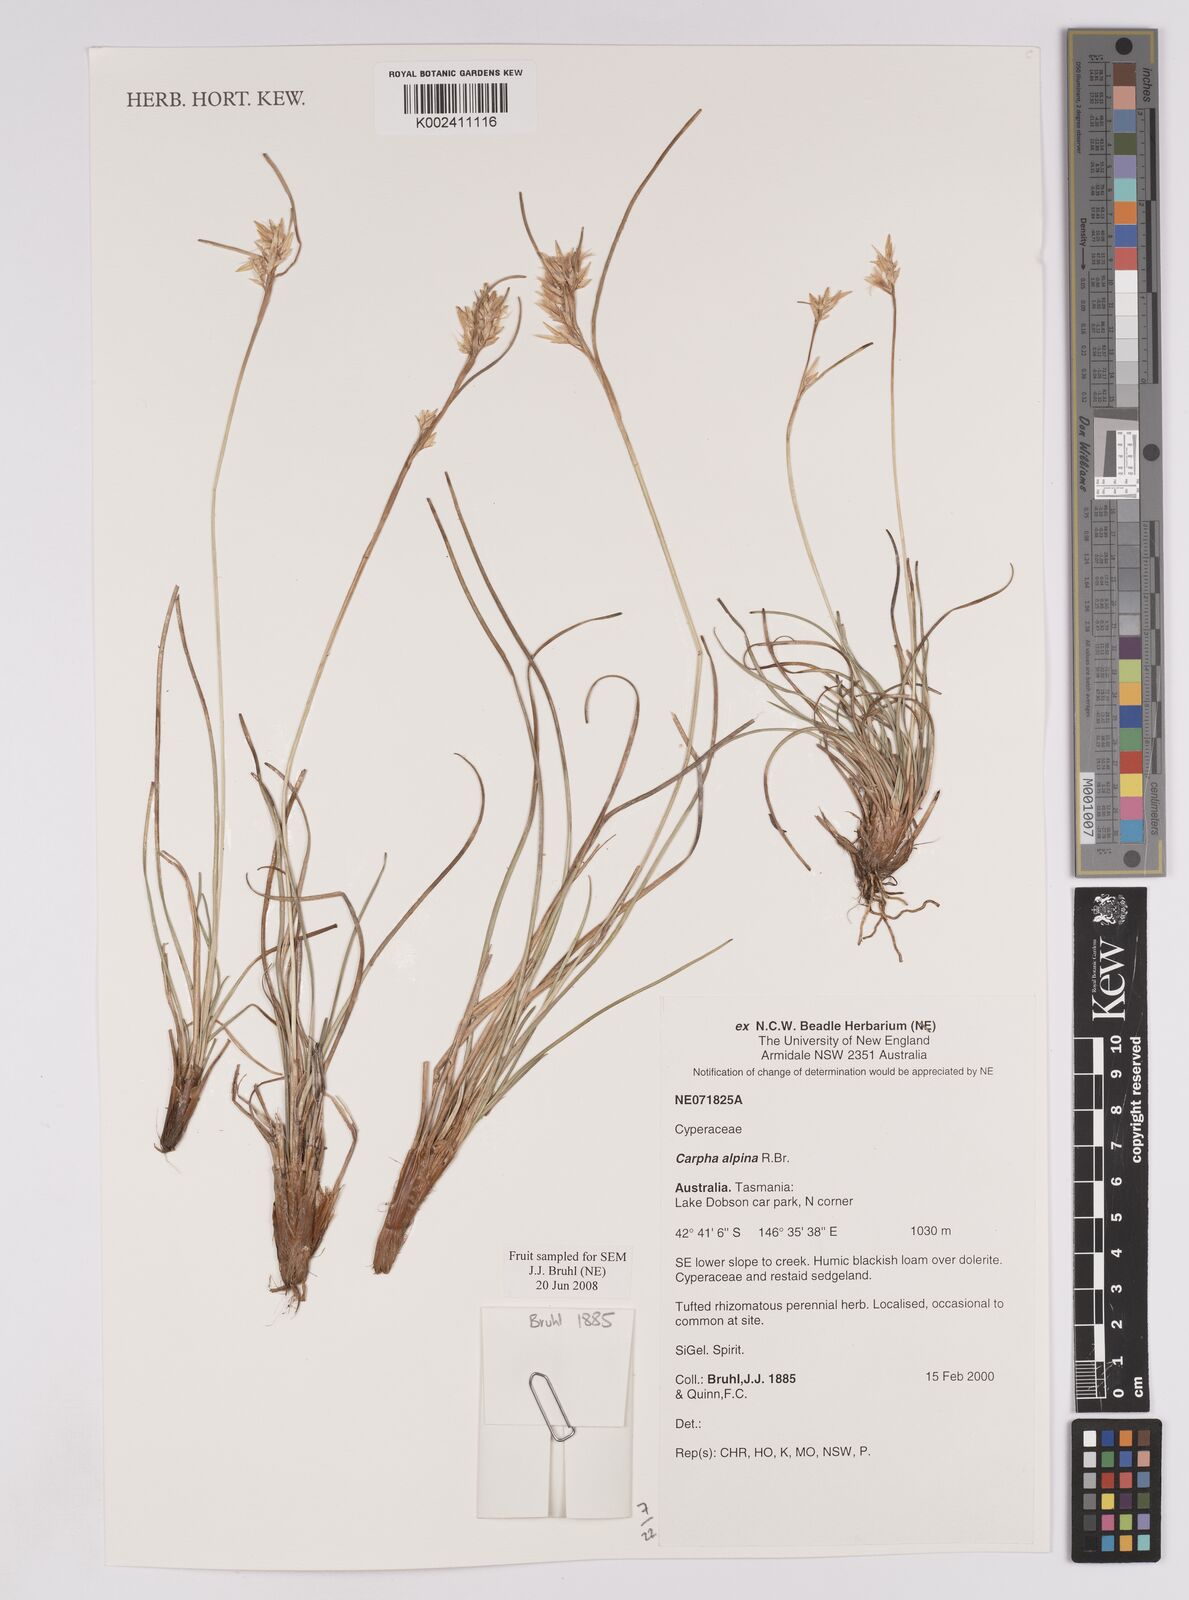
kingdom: Plantae
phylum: Tracheophyta
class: Liliopsida
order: Poales
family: Cyperaceae
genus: Carpha
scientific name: Carpha alpina
